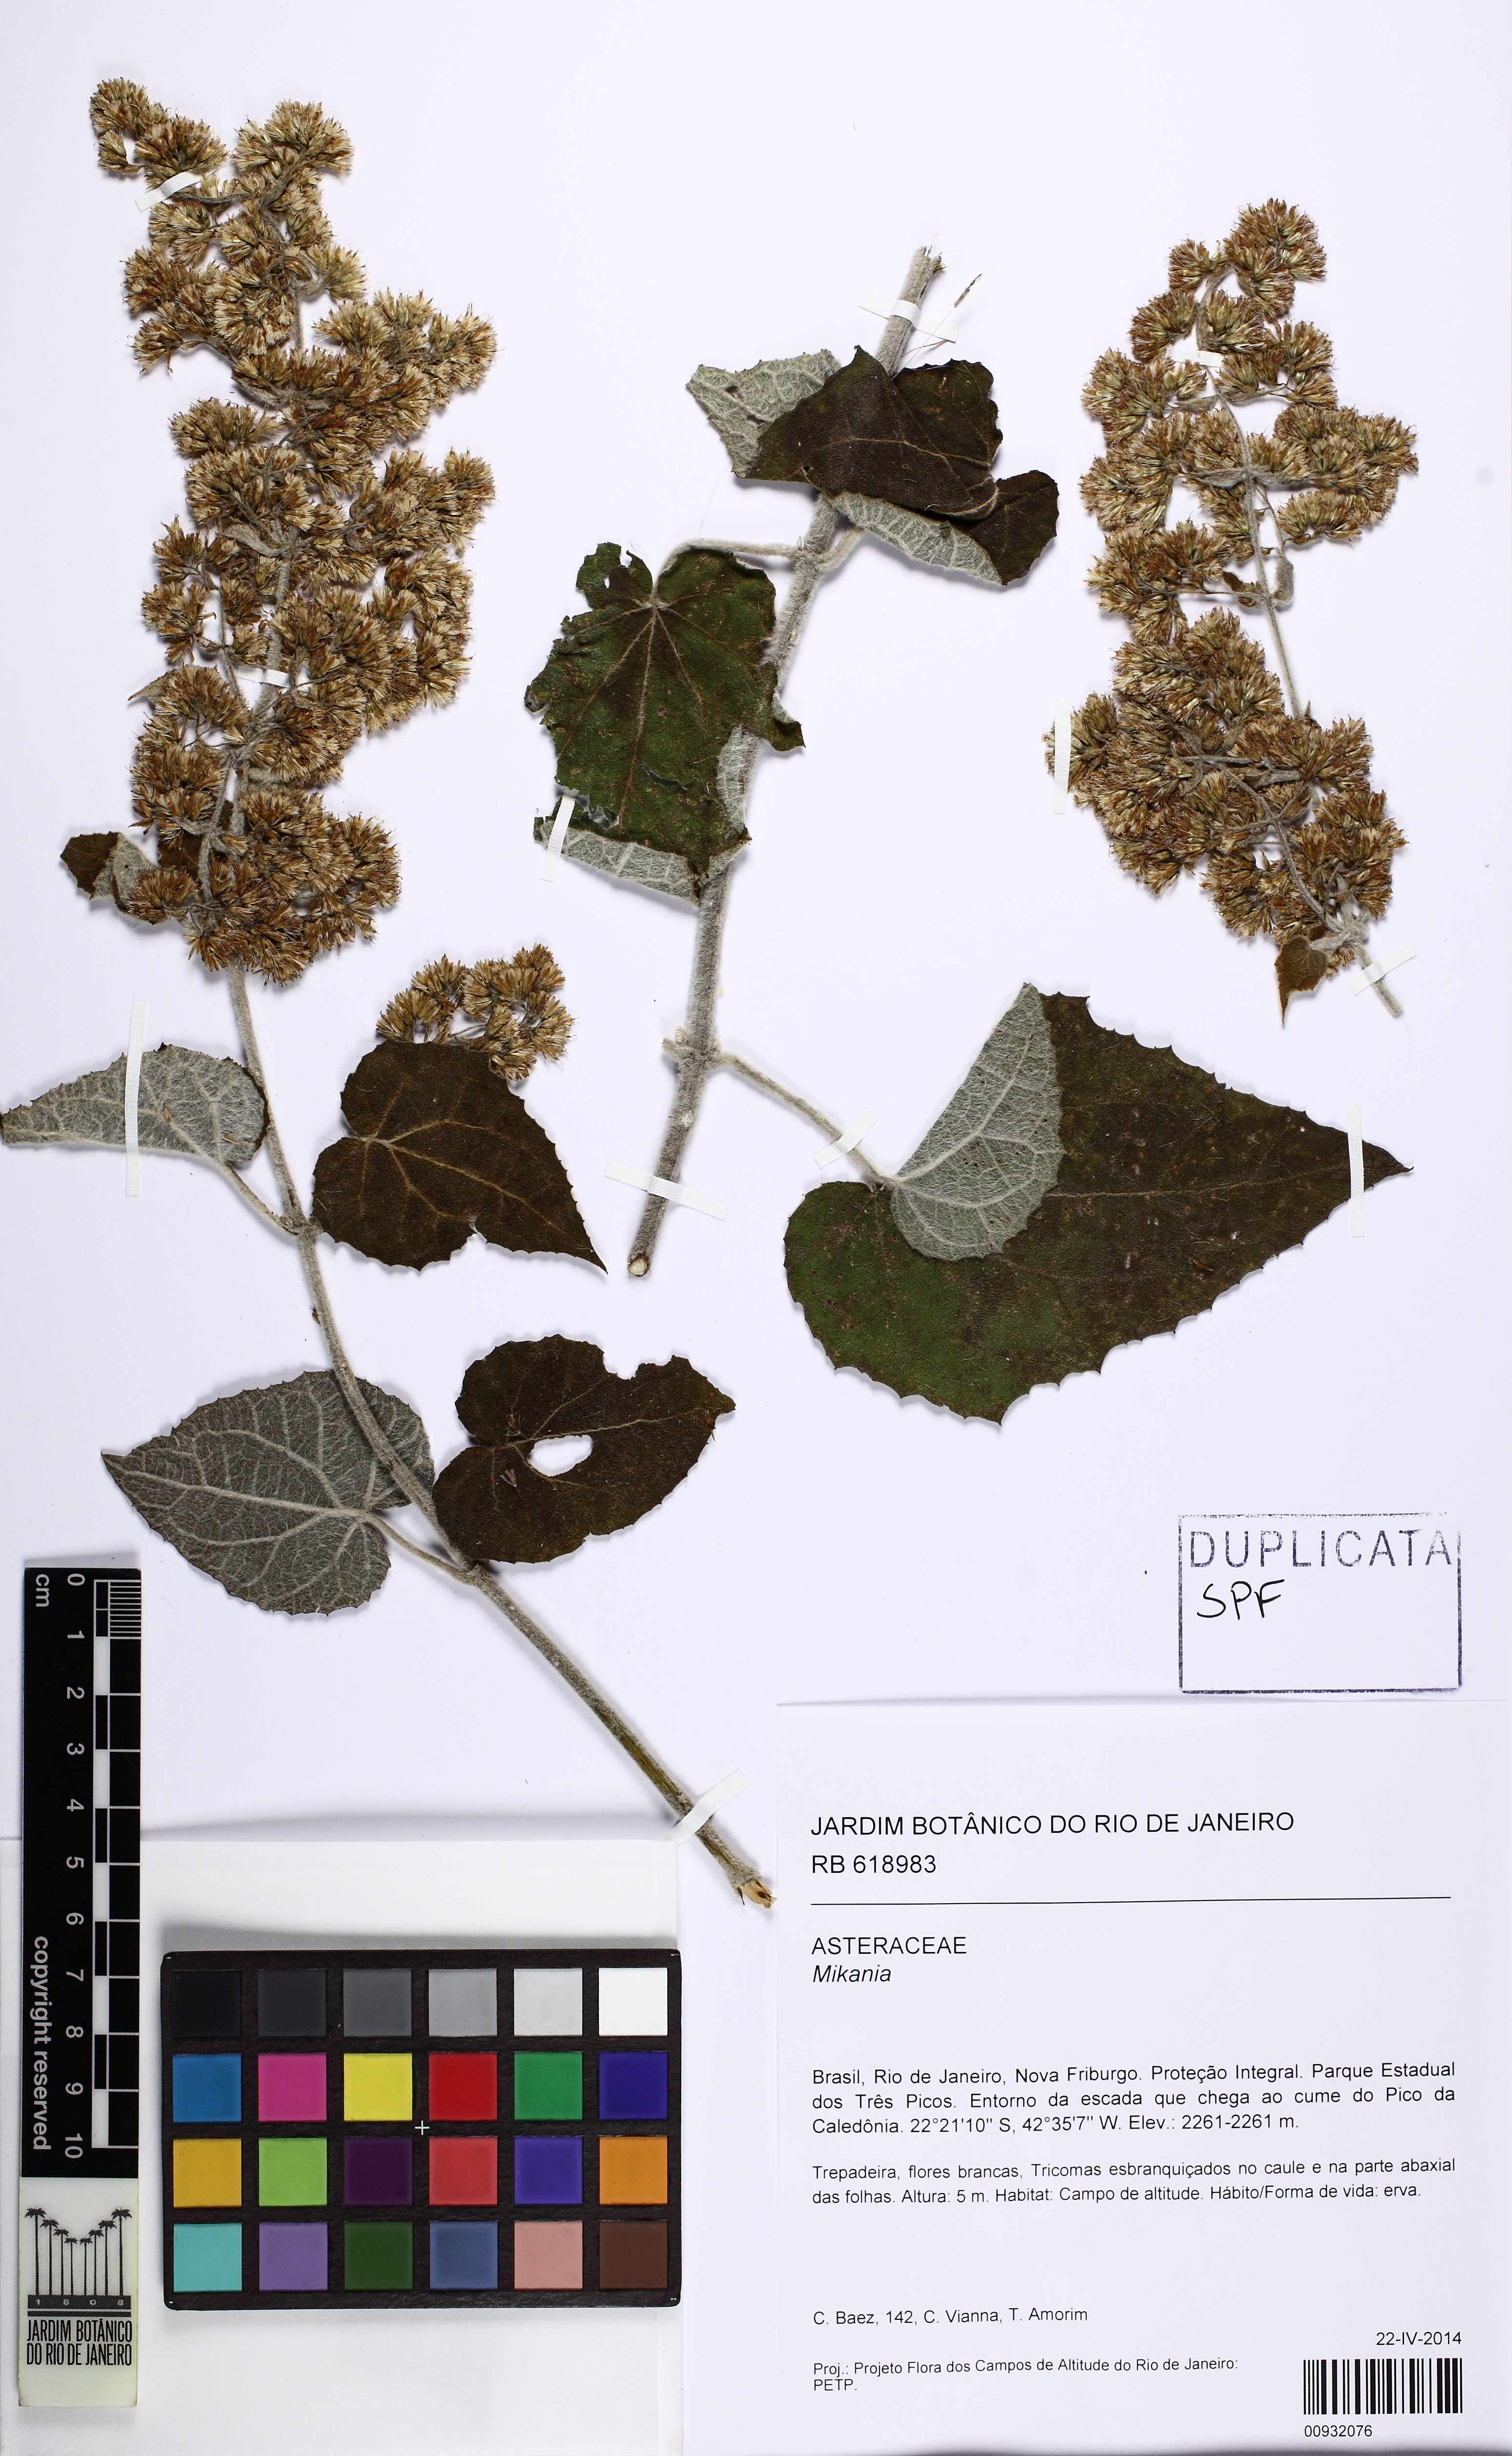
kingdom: Plantae
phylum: Tracheophyta
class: Magnoliopsida
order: Asterales
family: Asteraceae
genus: Mikania
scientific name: Mikania
